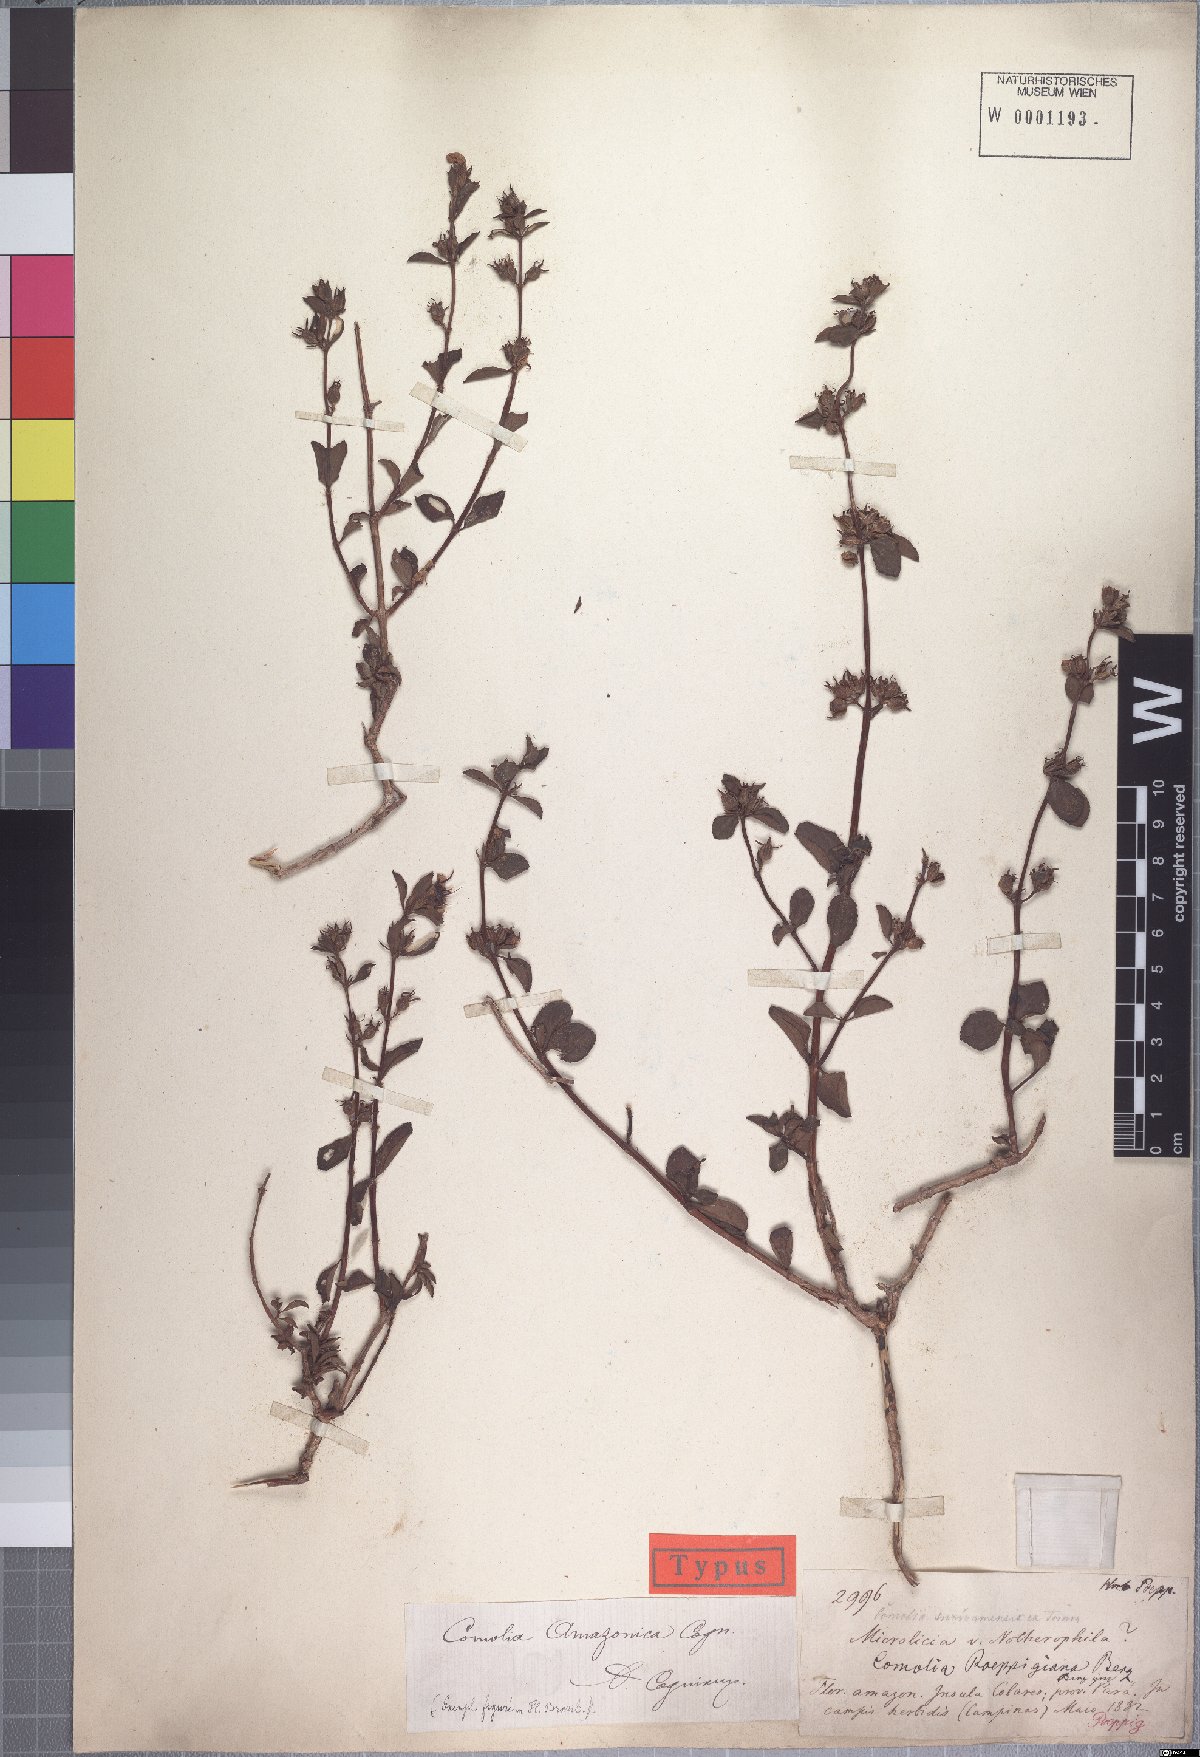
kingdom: Plantae
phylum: Tracheophyta
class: Magnoliopsida
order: Myrtales
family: Melastomataceae
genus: Comolia
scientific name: Comolia villosa
